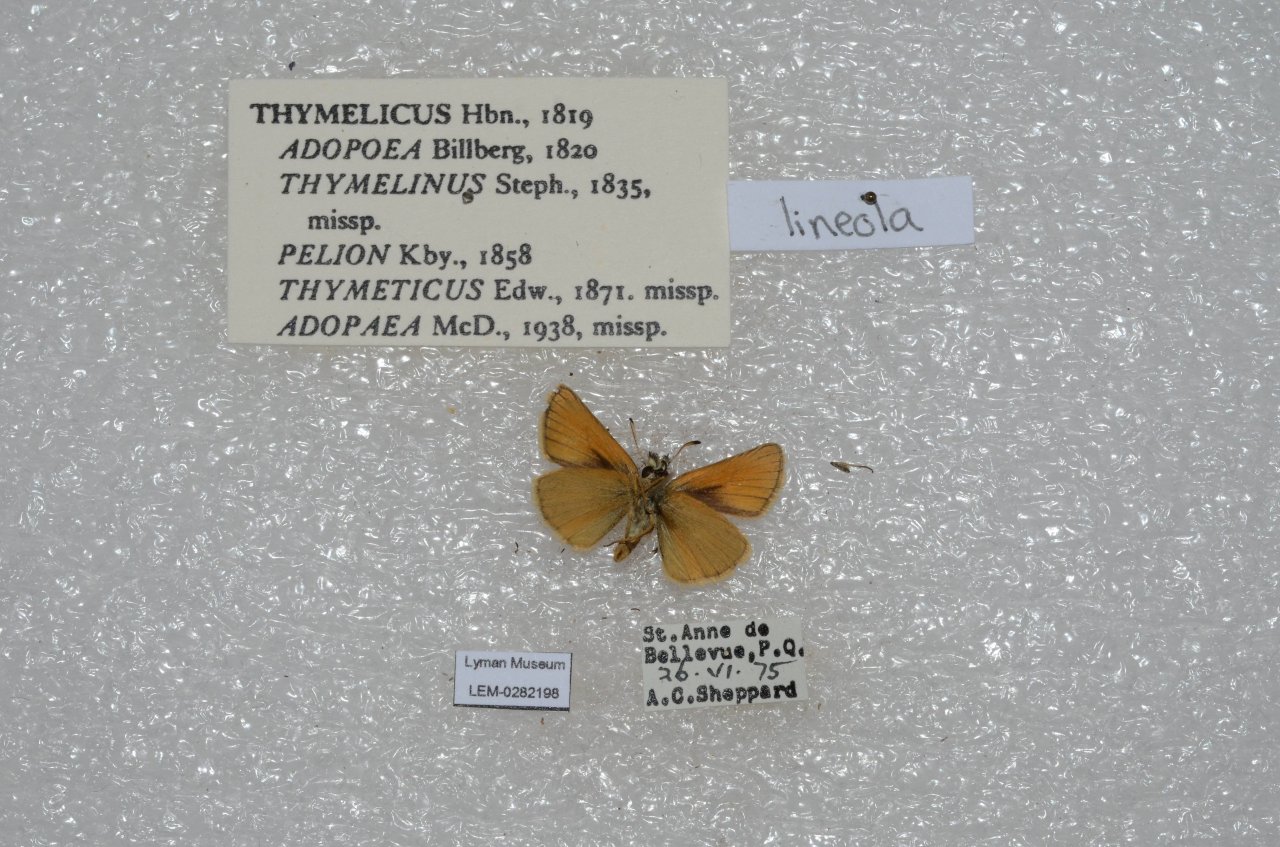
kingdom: Animalia
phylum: Arthropoda
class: Insecta
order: Lepidoptera
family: Hesperiidae
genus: Thymelicus
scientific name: Thymelicus lineola
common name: European Skipper
